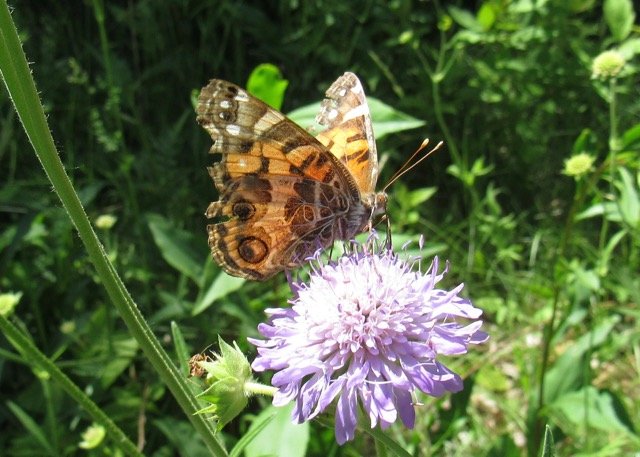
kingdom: Animalia
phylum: Arthropoda
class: Insecta
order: Lepidoptera
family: Nymphalidae
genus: Vanessa
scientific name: Vanessa virginiensis
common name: American Lady
